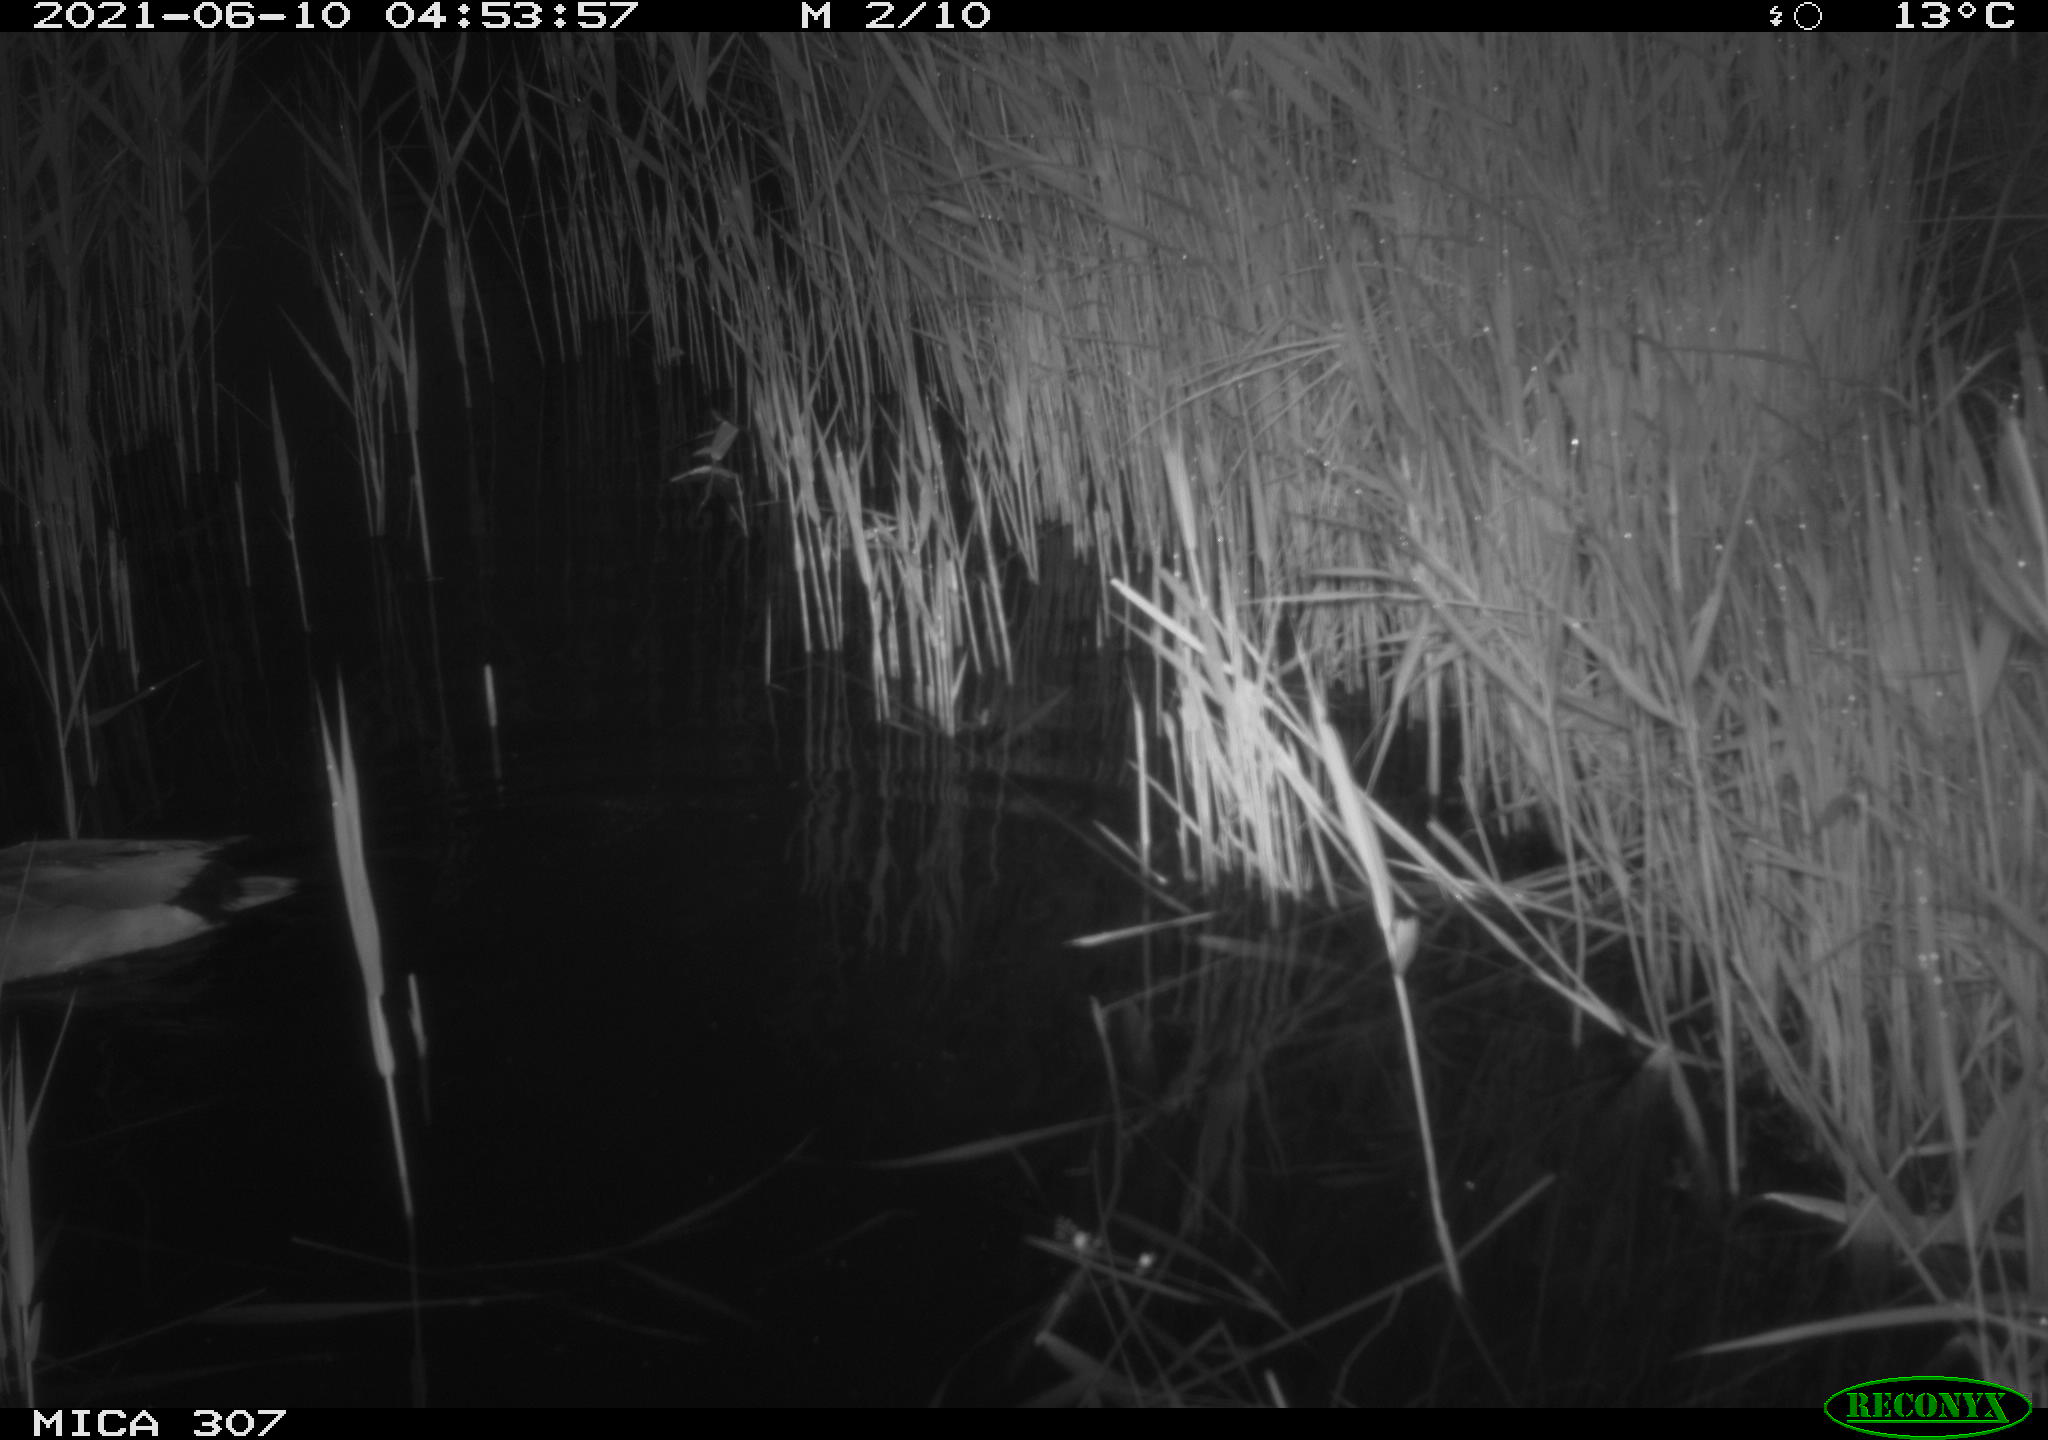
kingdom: Animalia
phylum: Chordata
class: Aves
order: Anseriformes
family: Anatidae
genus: Anas
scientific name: Anas platyrhynchos
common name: Mallard
